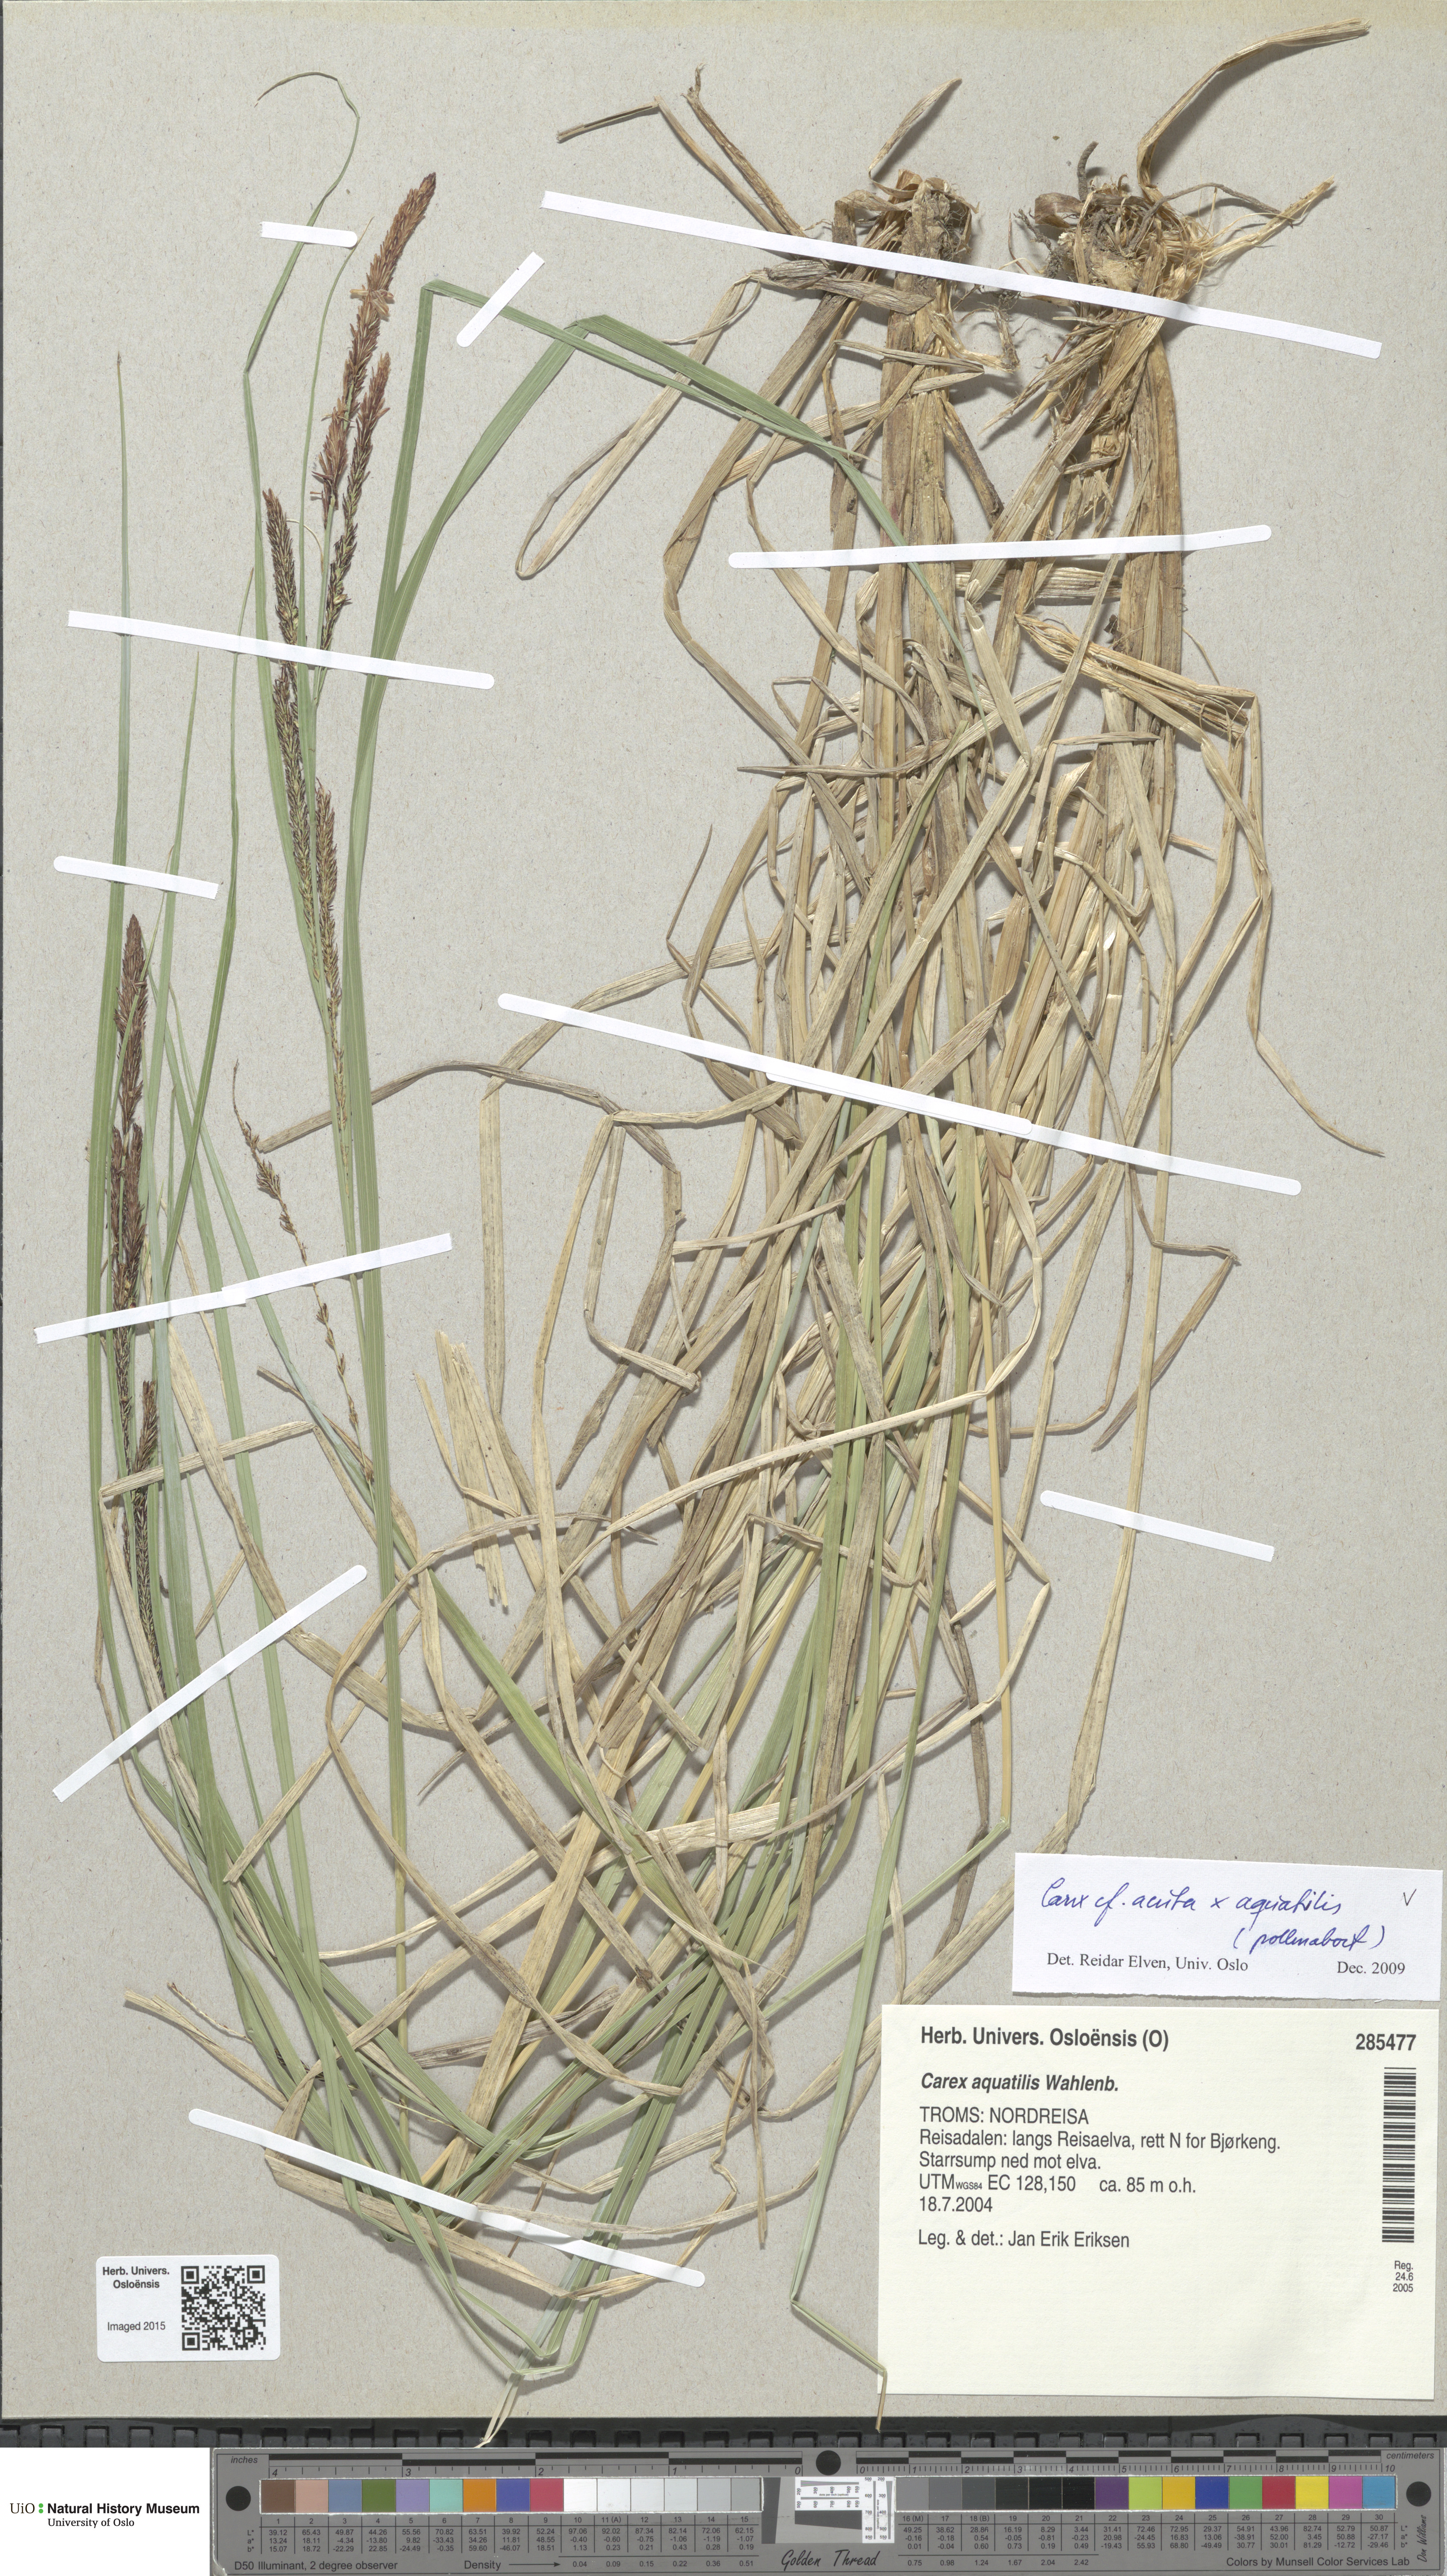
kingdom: Plantae
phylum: Tracheophyta
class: Liliopsida
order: Poales
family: Cyperaceae
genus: Carex
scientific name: Carex
